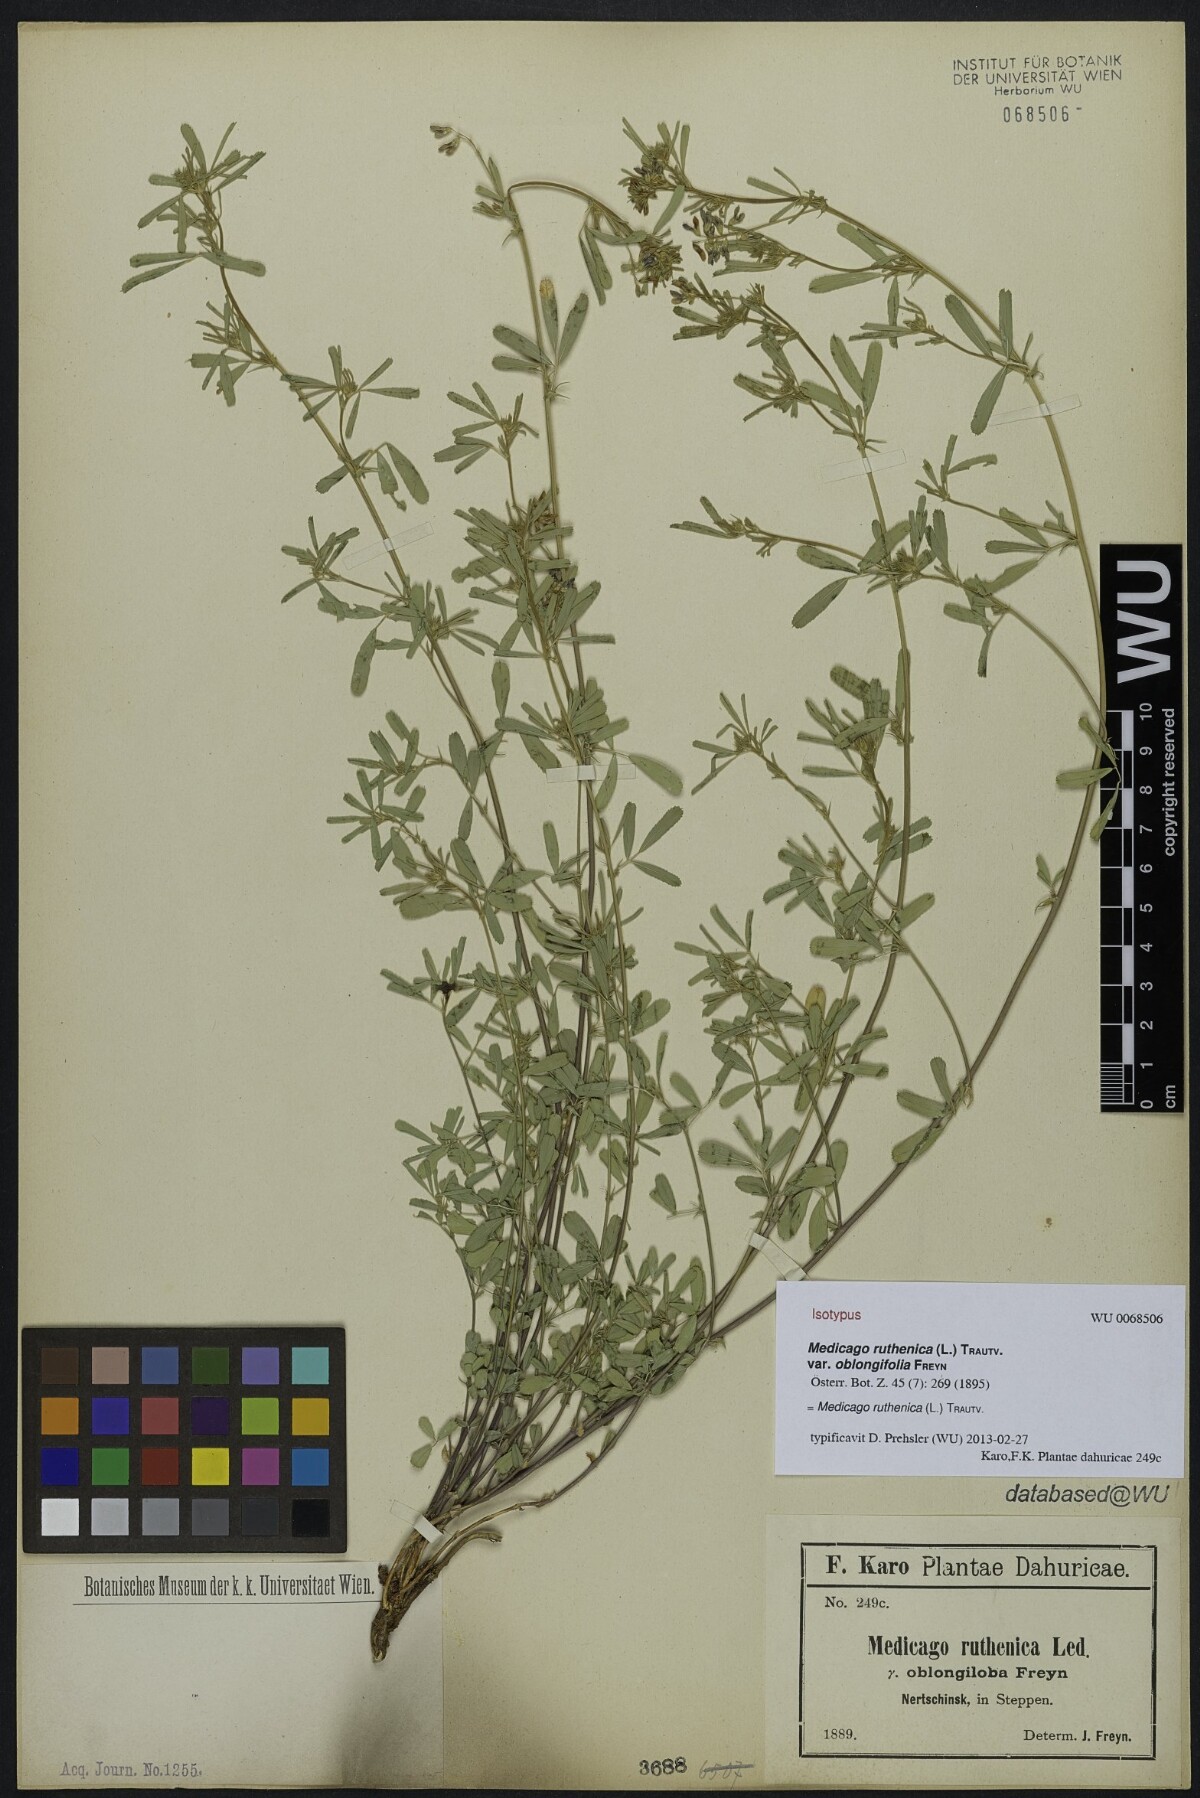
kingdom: Plantae
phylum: Tracheophyta
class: Magnoliopsida
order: Fabales
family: Fabaceae
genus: Medicago
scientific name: Medicago ruthenica
